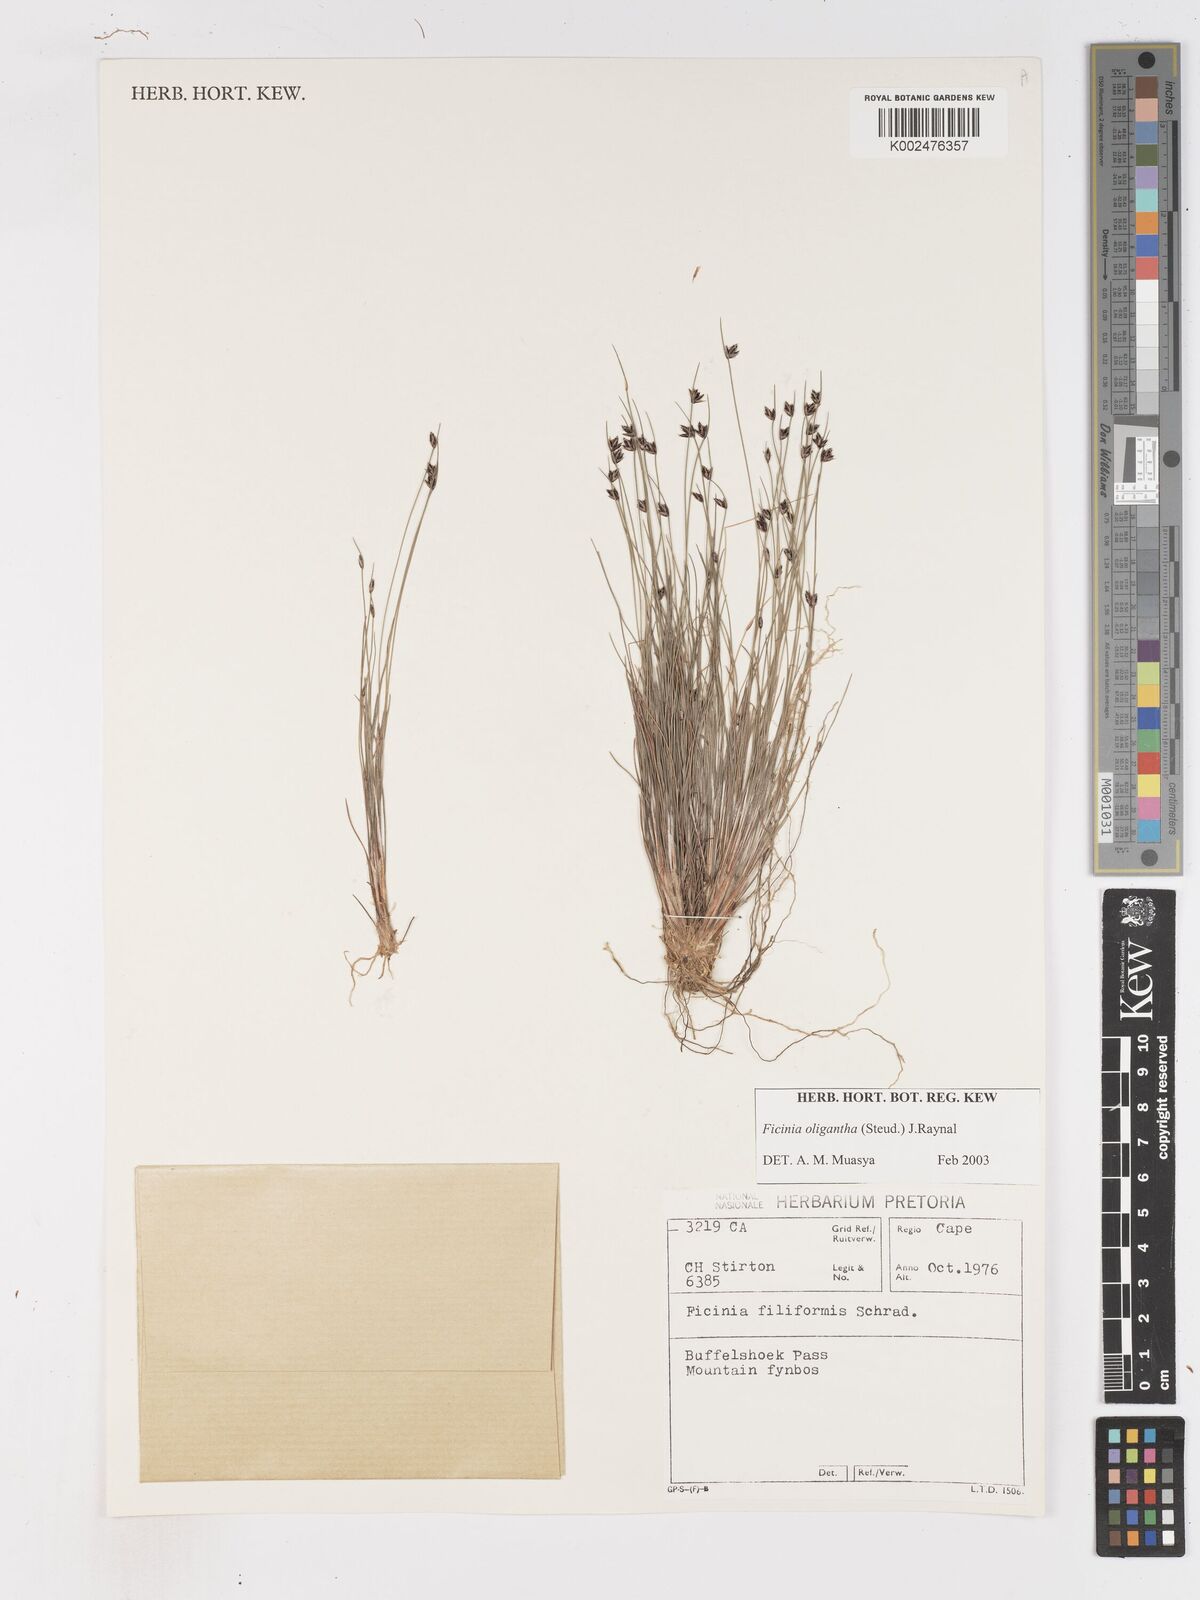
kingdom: Plantae
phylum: Tracheophyta
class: Liliopsida
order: Poales
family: Cyperaceae
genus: Ficinia
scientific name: Ficinia oligantha
